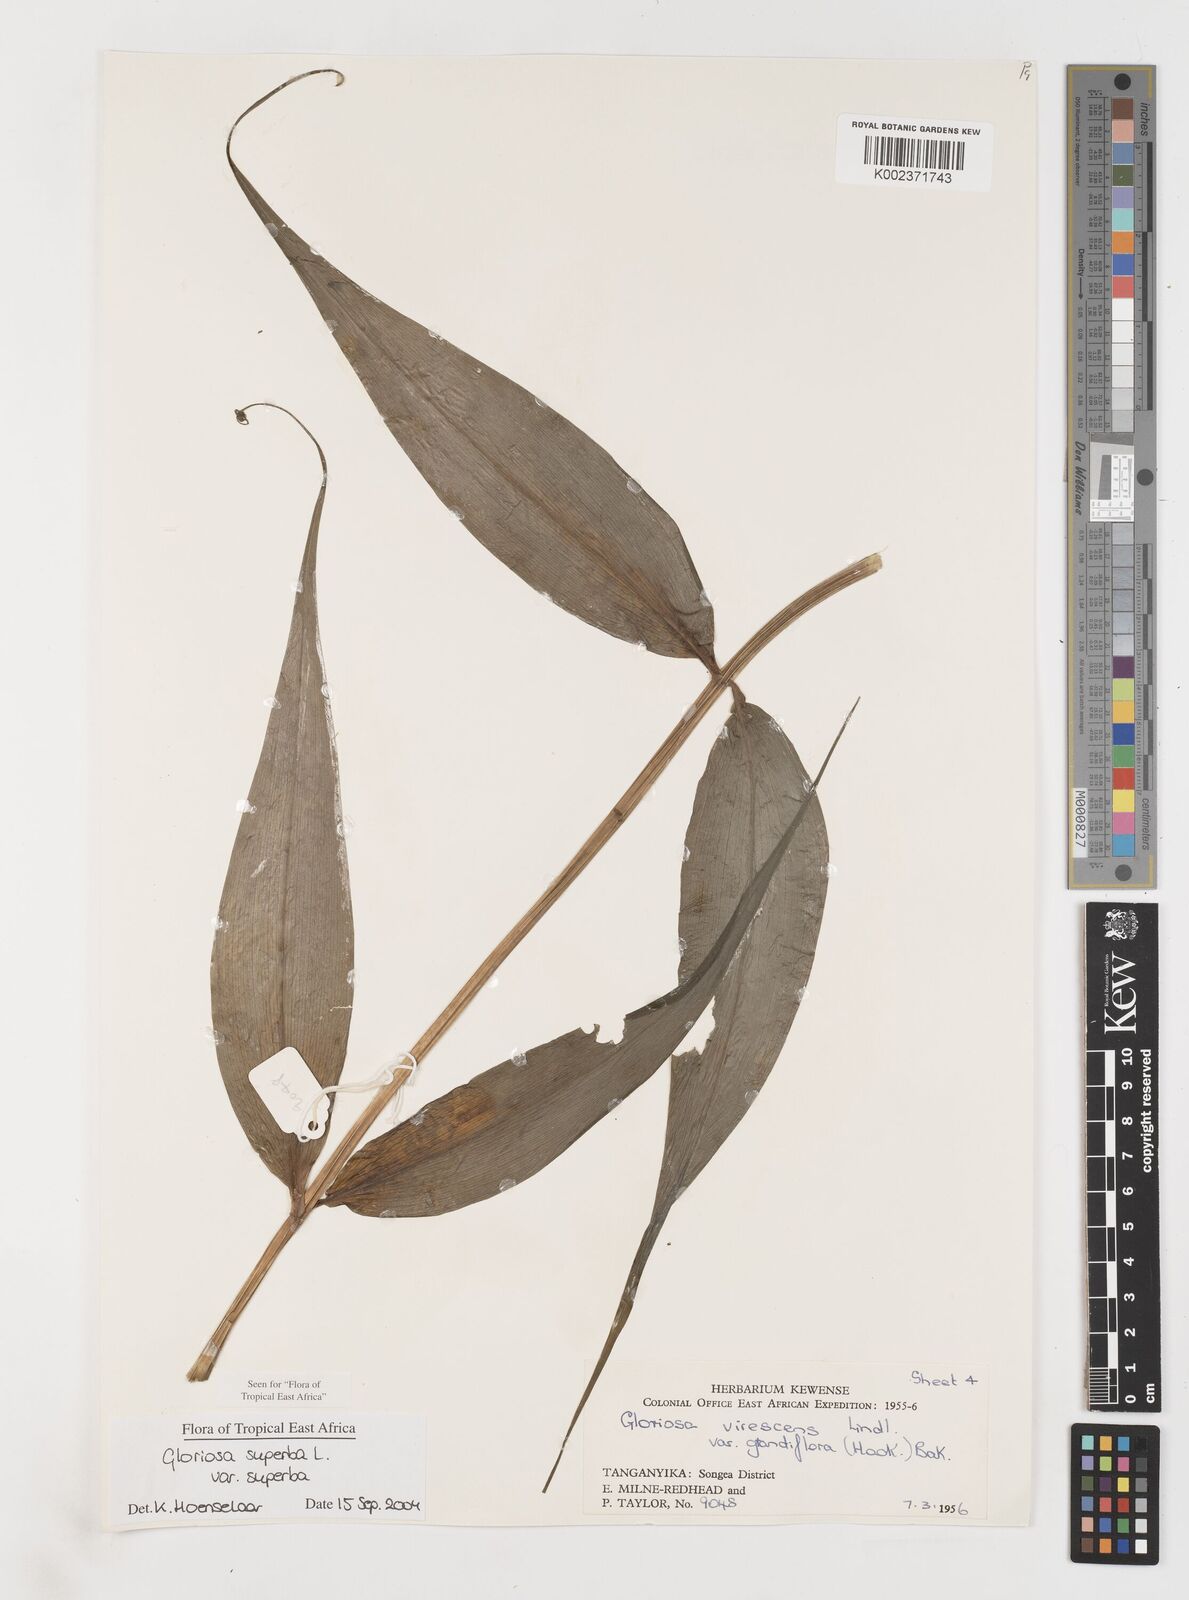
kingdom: Plantae
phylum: Tracheophyta
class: Liliopsida
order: Liliales
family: Colchicaceae
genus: Gloriosa
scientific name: Gloriosa simplex
